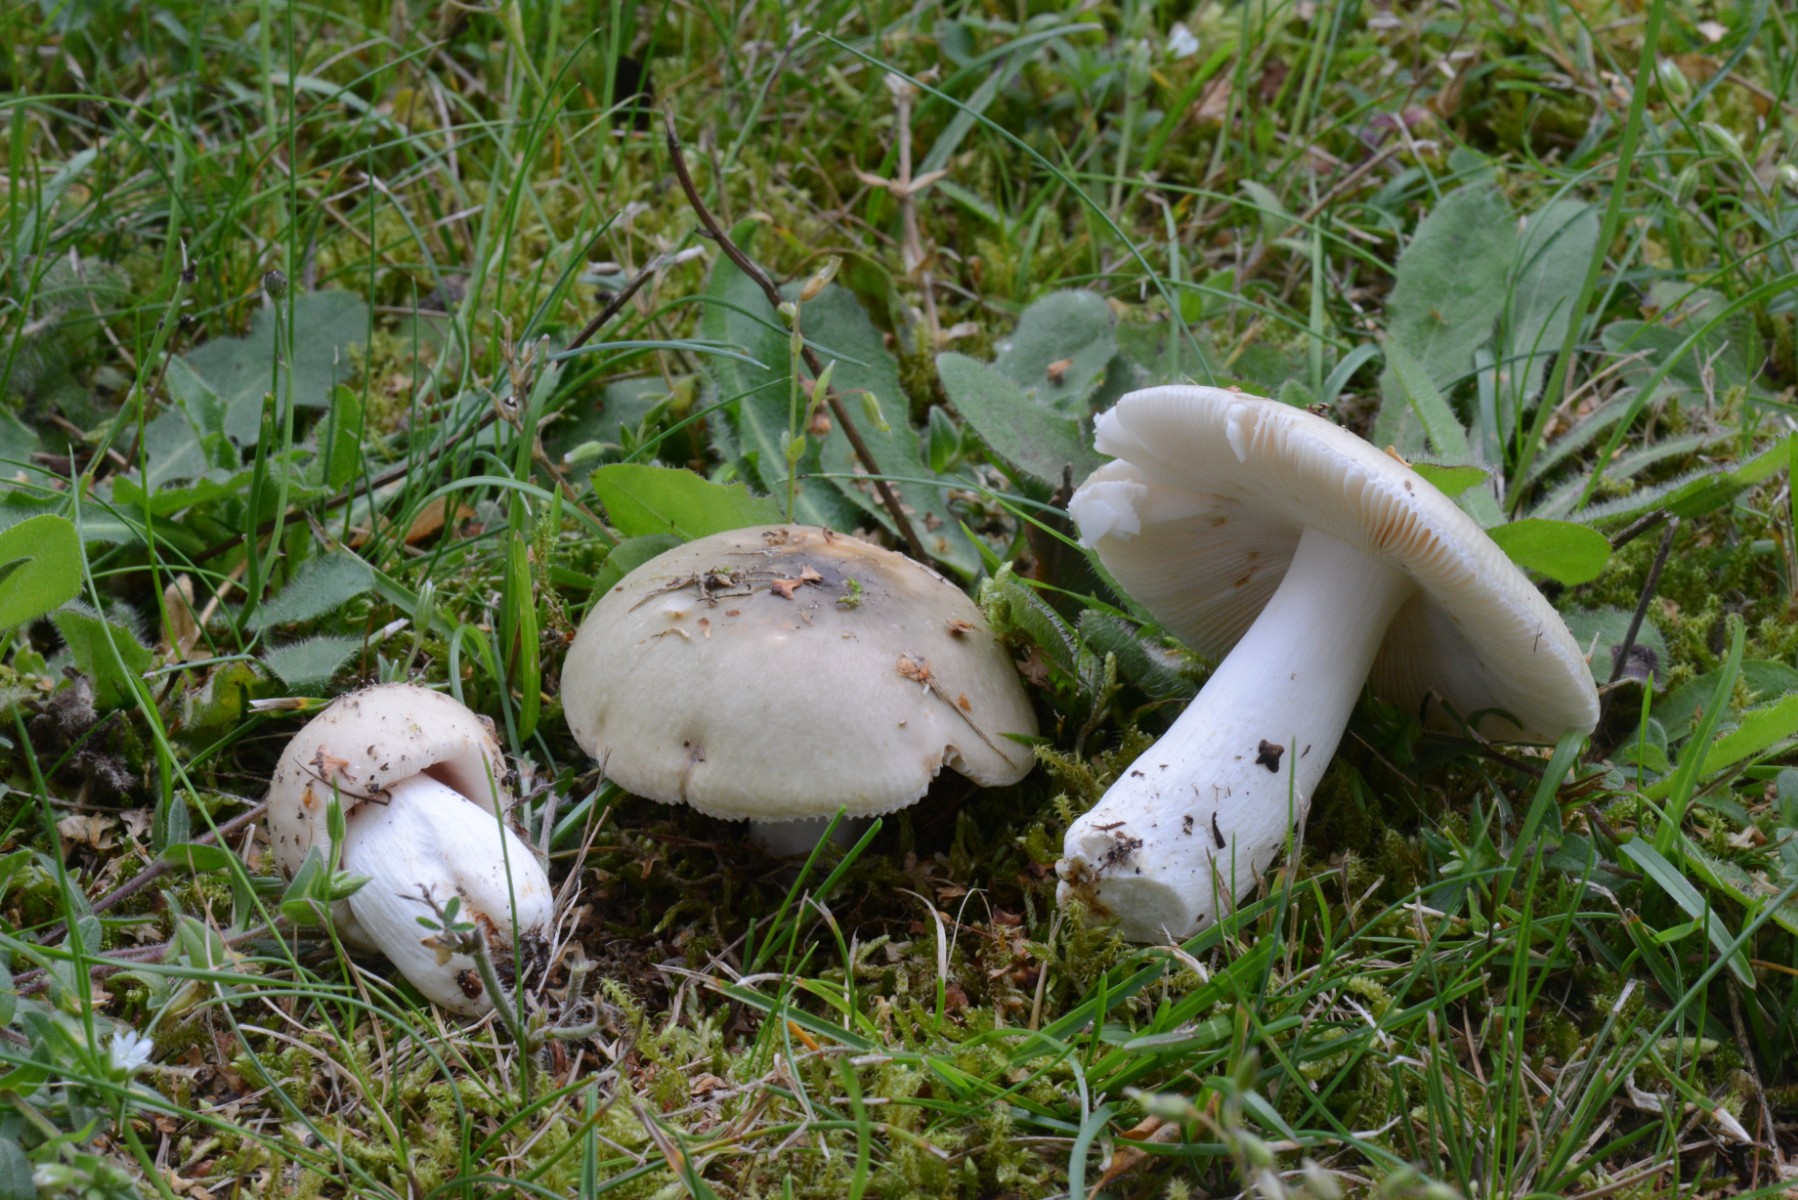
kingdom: Fungi
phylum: Basidiomycota
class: Agaricomycetes
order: Russulales
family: Russulaceae
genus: Russula
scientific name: Russula aeruginea
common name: græsgrøn skørhat
